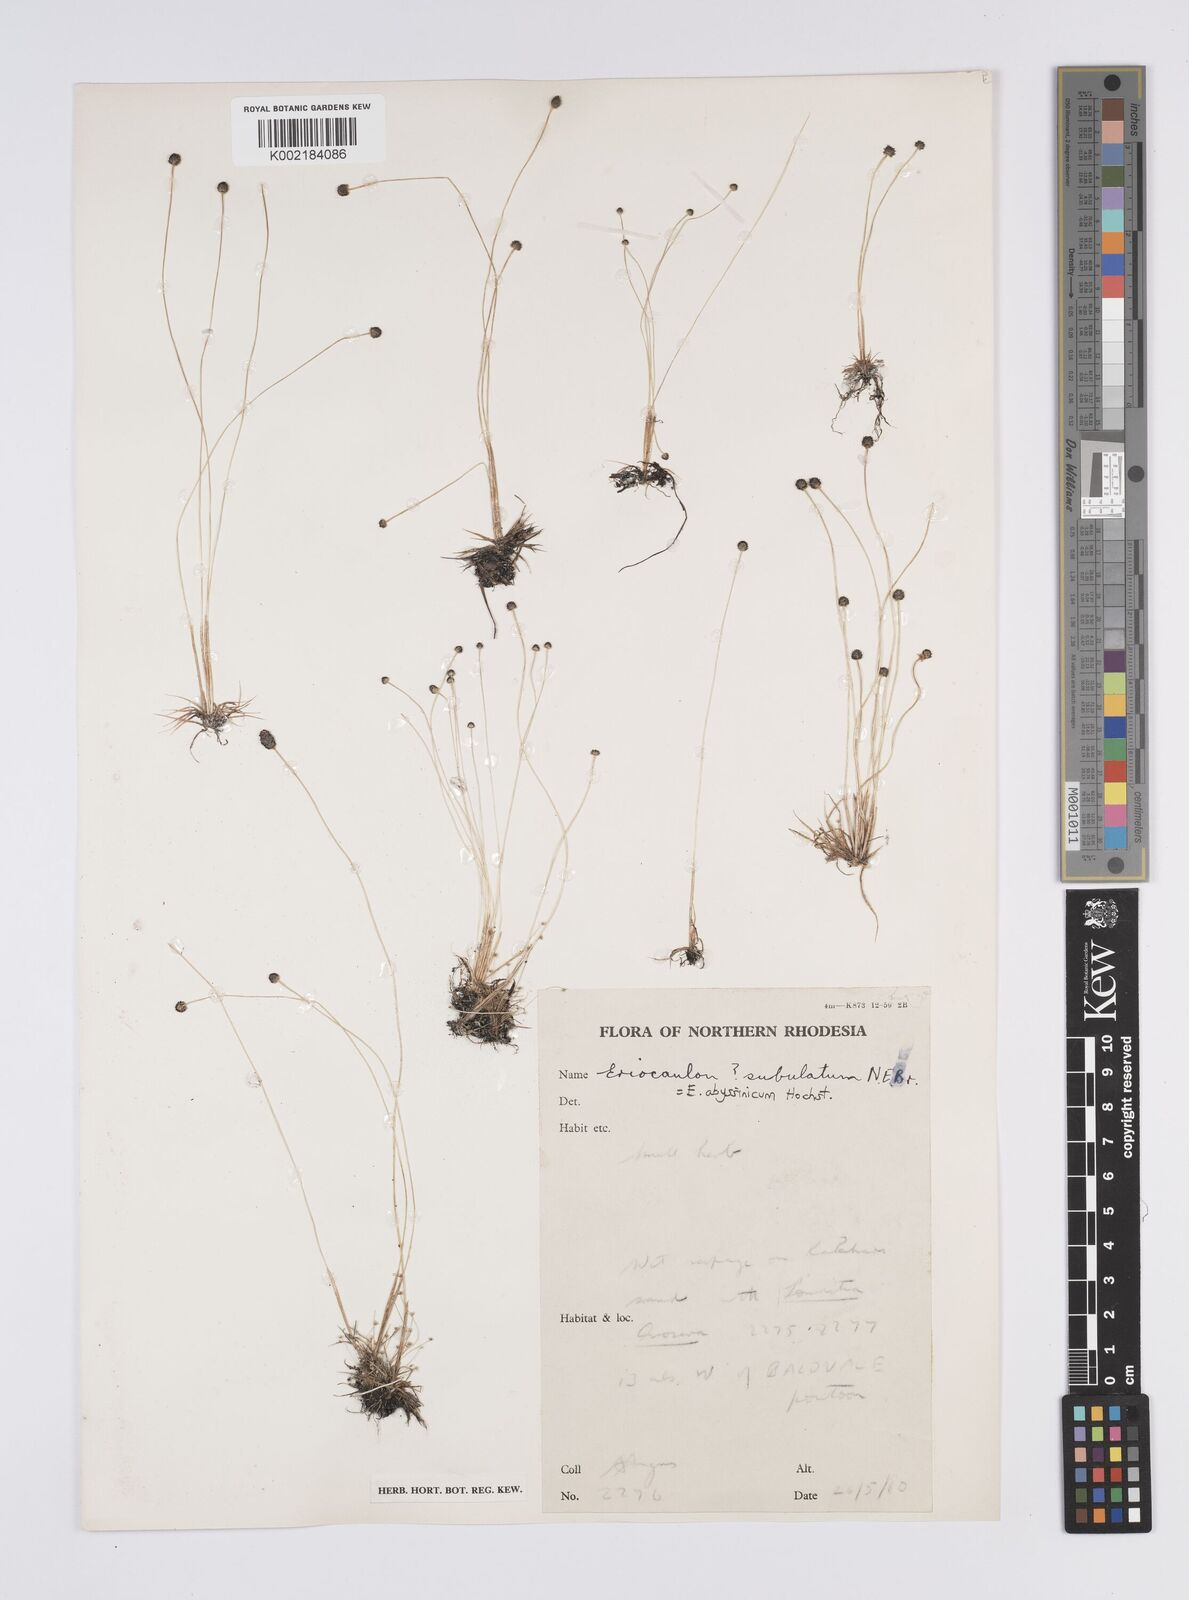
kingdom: Plantae
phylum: Tracheophyta
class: Liliopsida
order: Poales
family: Eriocaulaceae
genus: Eriocaulon
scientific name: Eriocaulon abyssinicum
